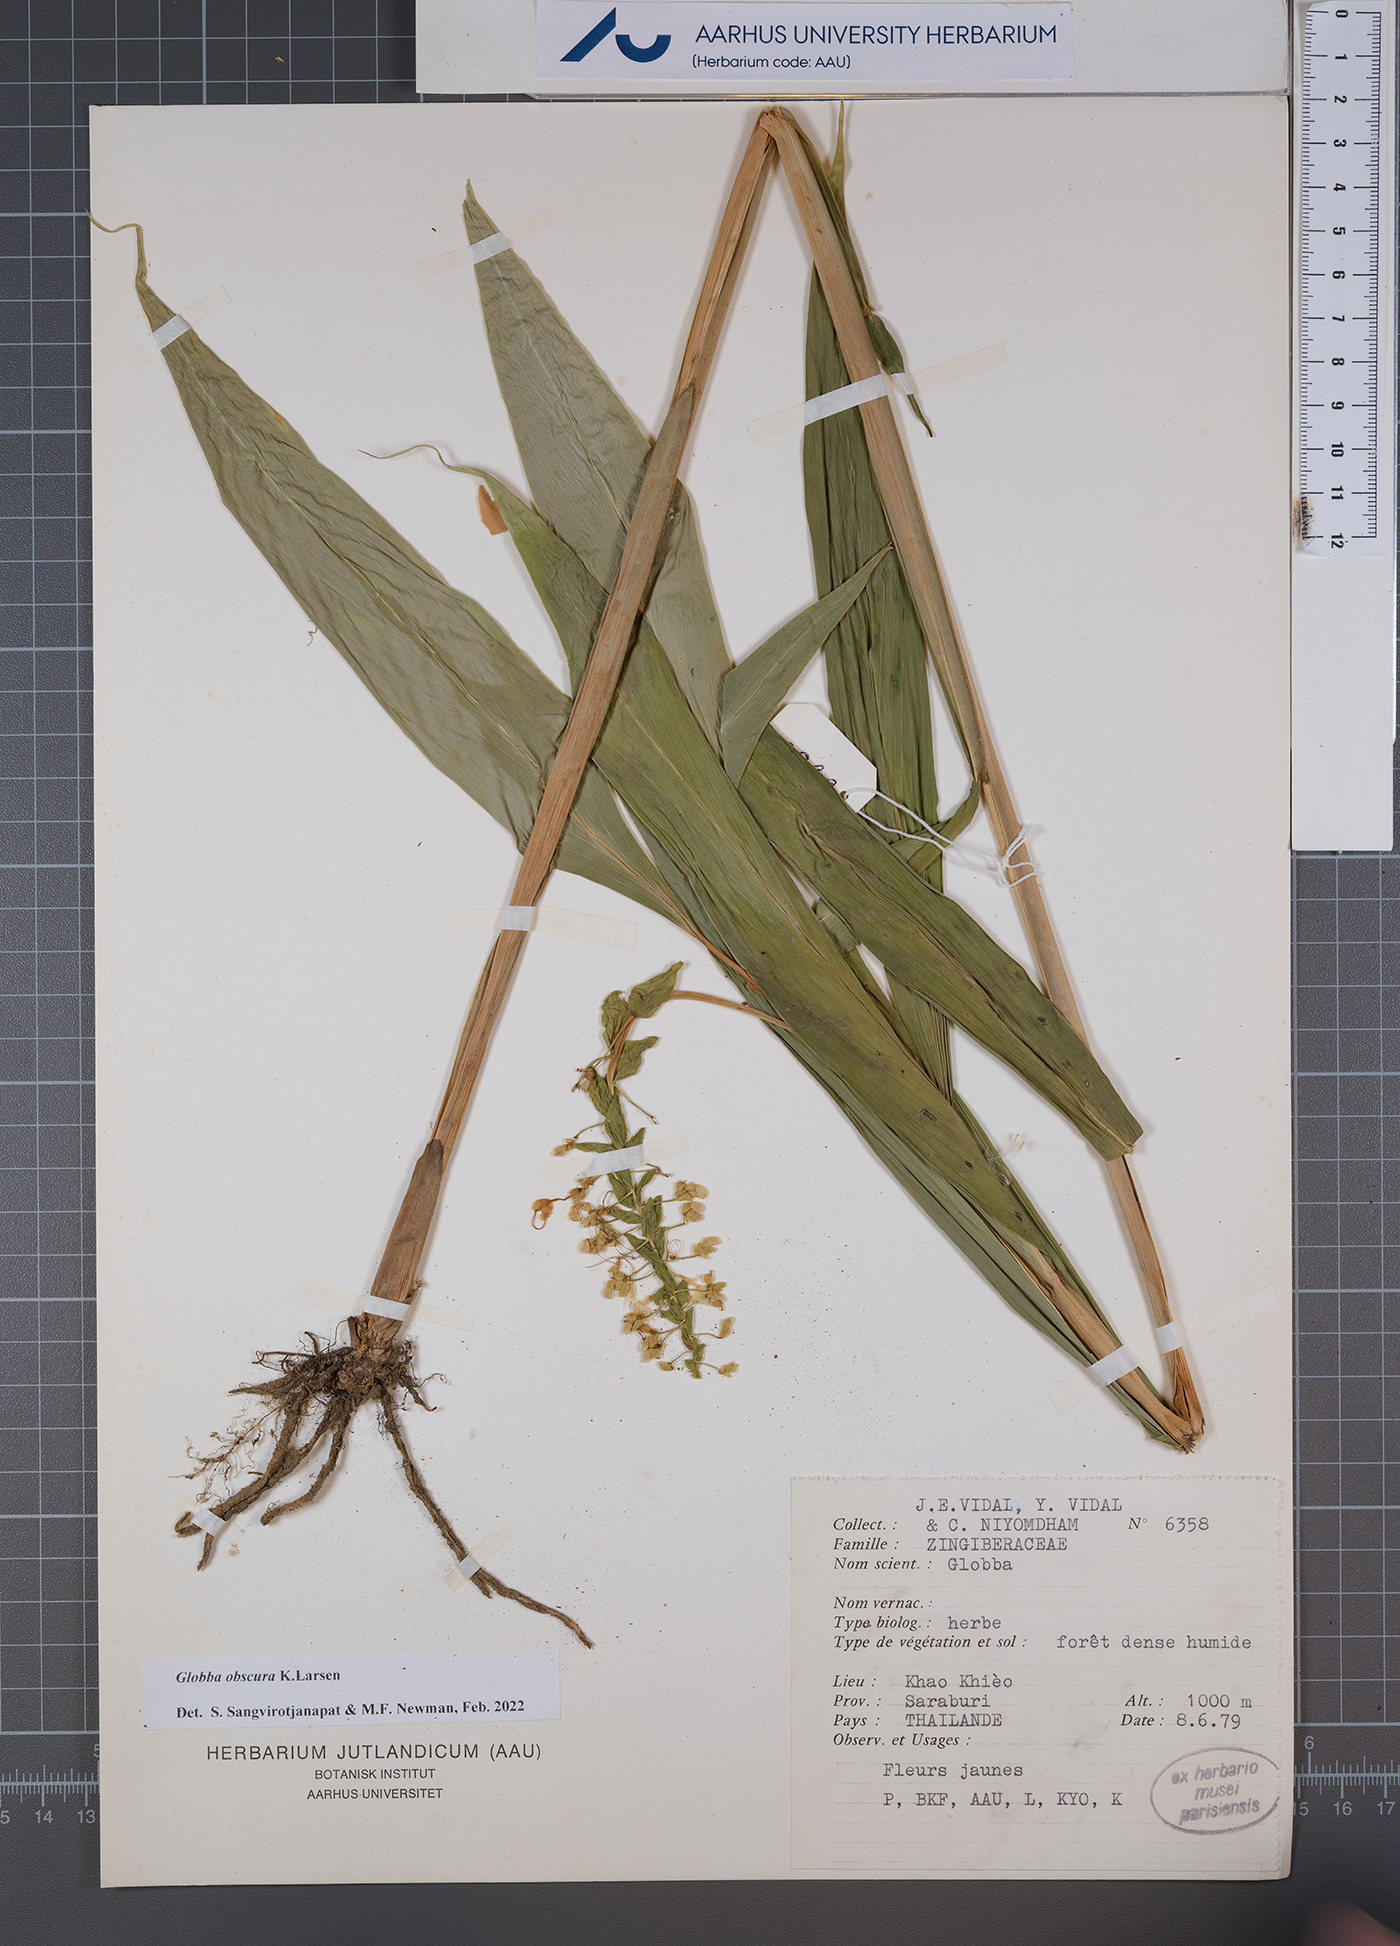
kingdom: Plantae
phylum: Tracheophyta
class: Liliopsida
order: Zingiberales
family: Zingiberaceae
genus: Globba
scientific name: Globba obscura
